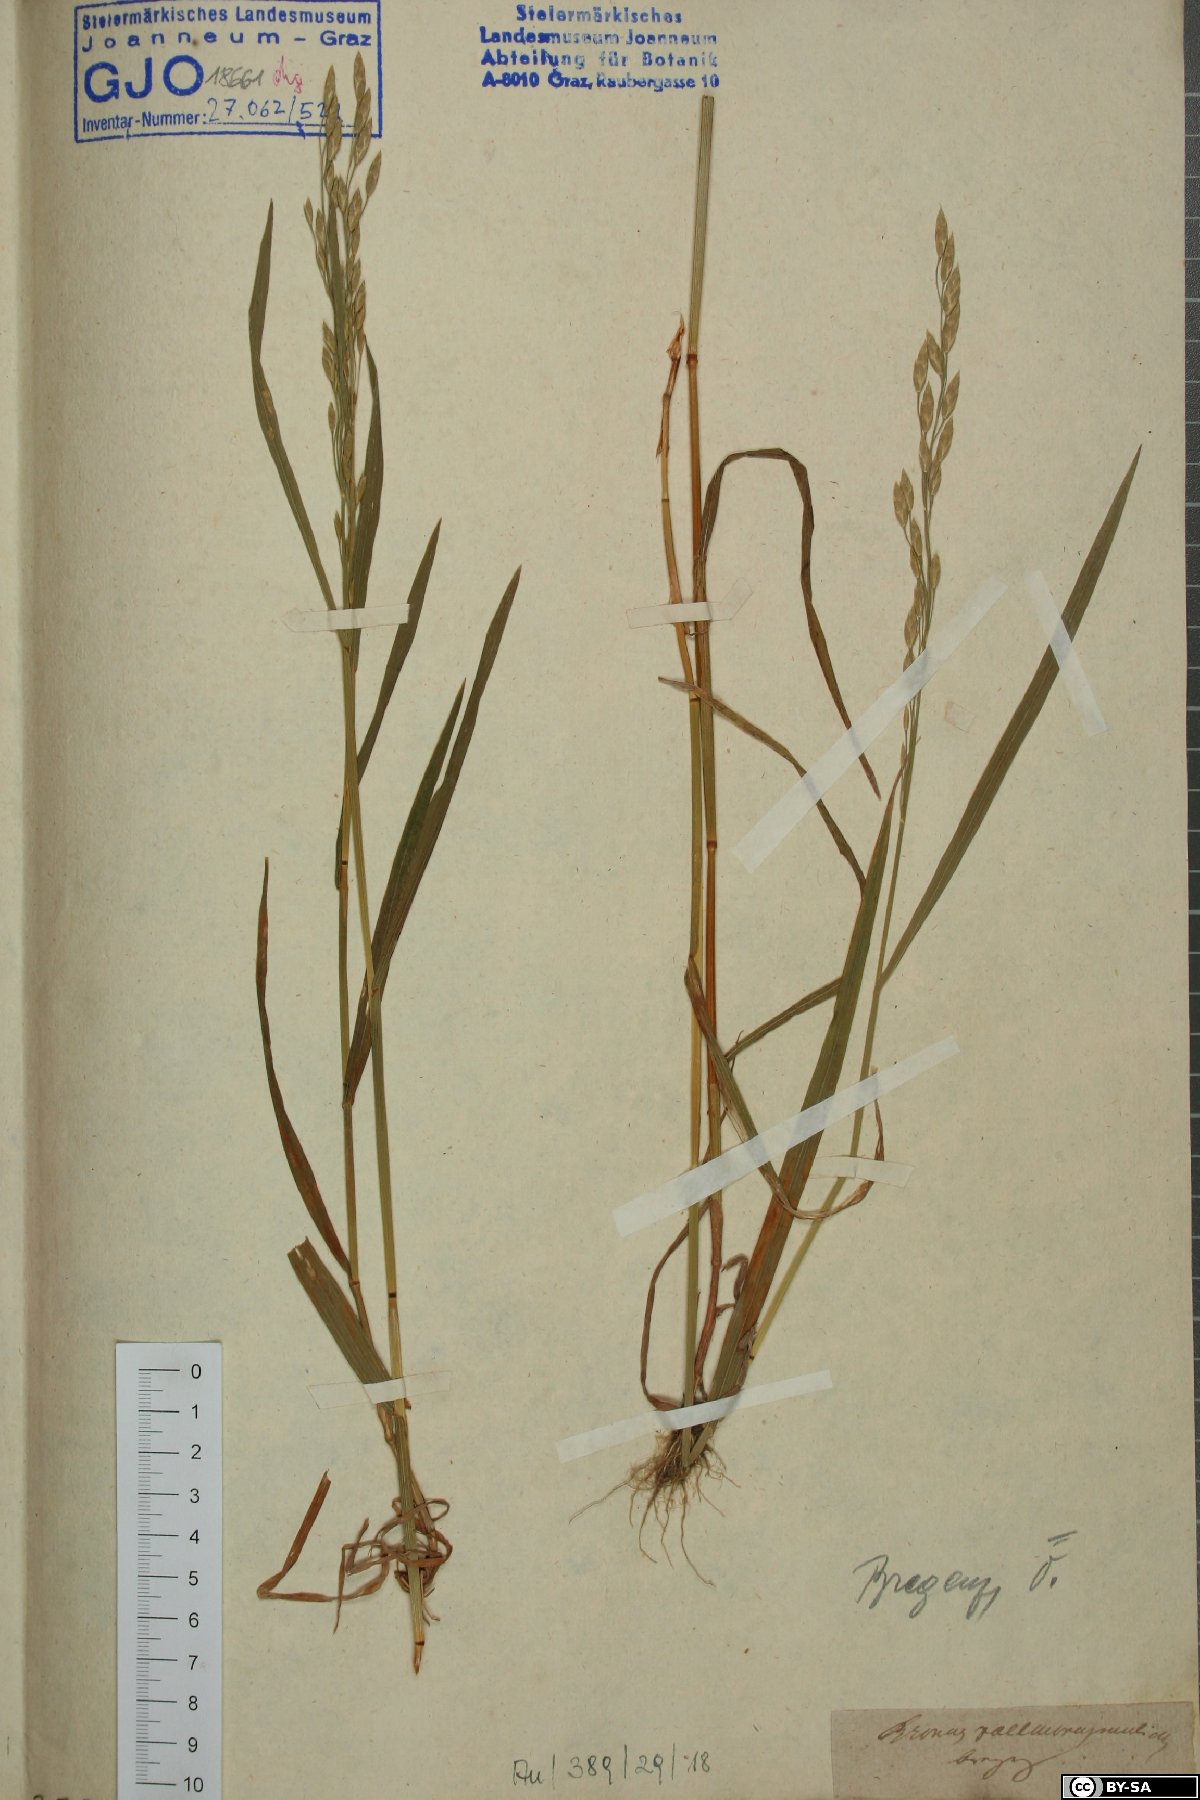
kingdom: Plantae
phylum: Tracheophyta
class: Liliopsida
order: Poales
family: Poaceae
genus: Bromus
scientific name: Bromus racemosus
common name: Bald brome
